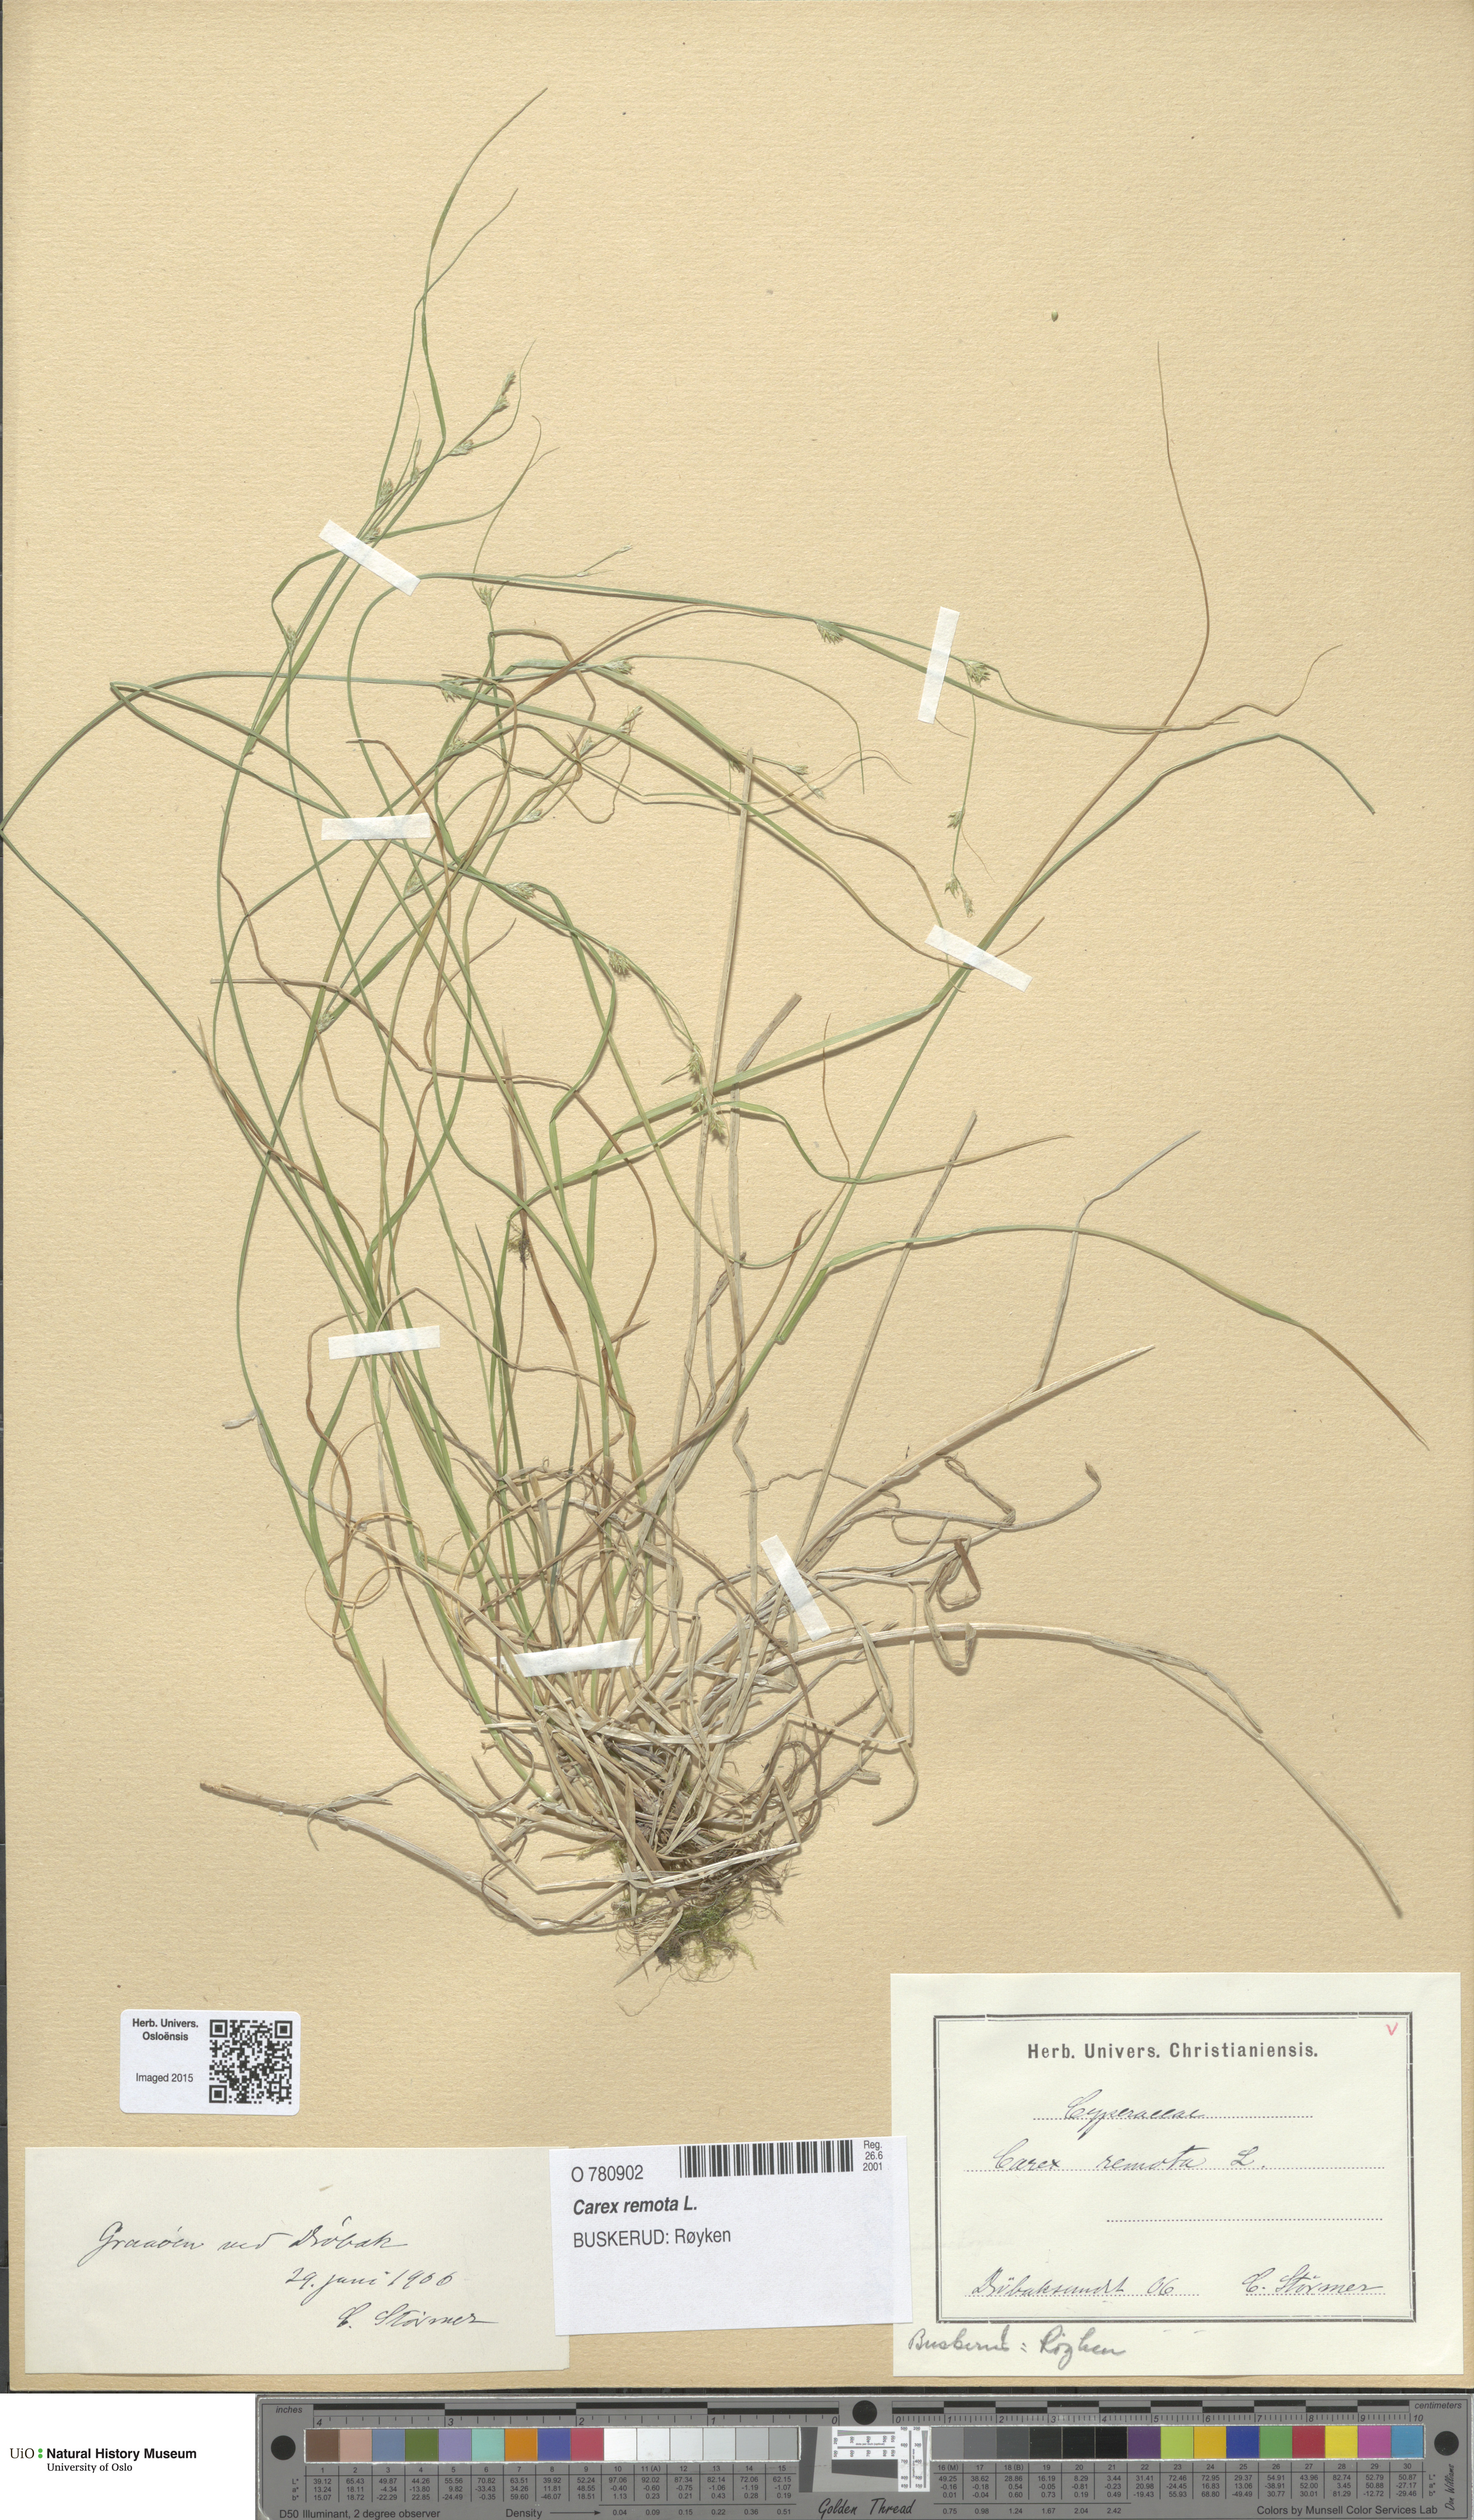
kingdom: Plantae
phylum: Tracheophyta
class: Liliopsida
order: Poales
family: Cyperaceae
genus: Carex
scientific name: Carex remota
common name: Remote sedge
